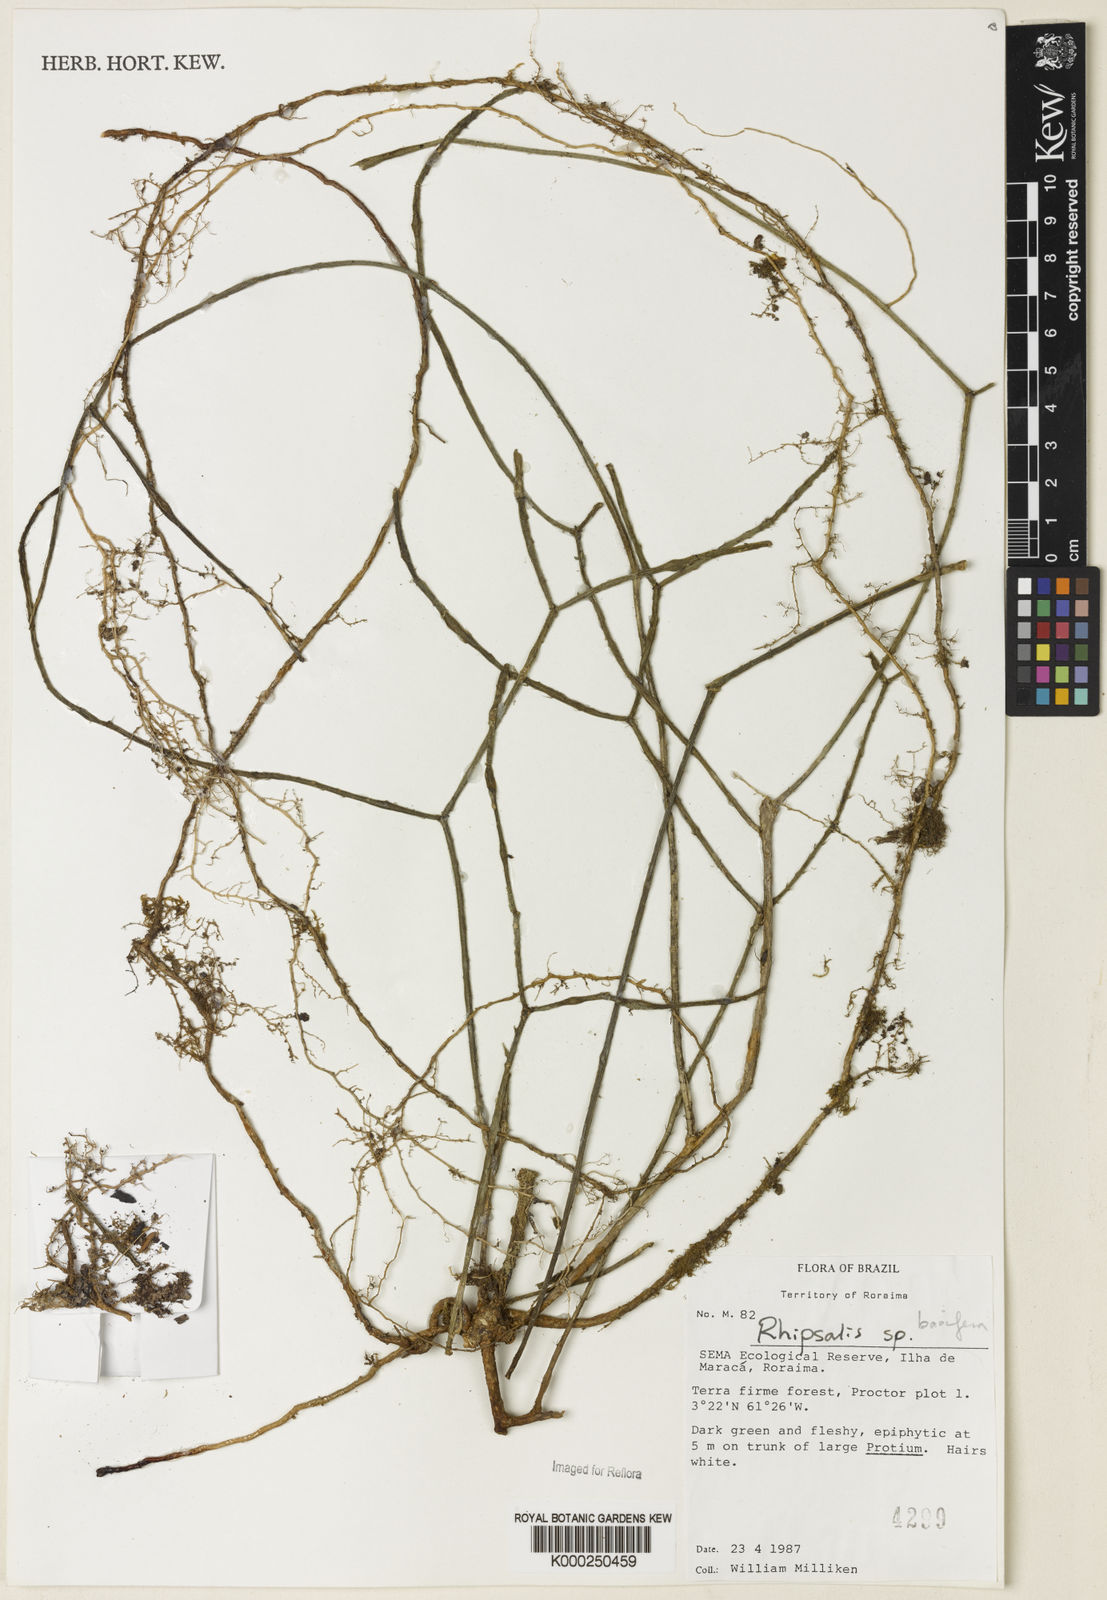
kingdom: Plantae
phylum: Tracheophyta
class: Magnoliopsida
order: Caryophyllales
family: Cactaceae
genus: Rhipsalis
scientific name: Rhipsalis baccifera
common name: Mistletoe cactus
